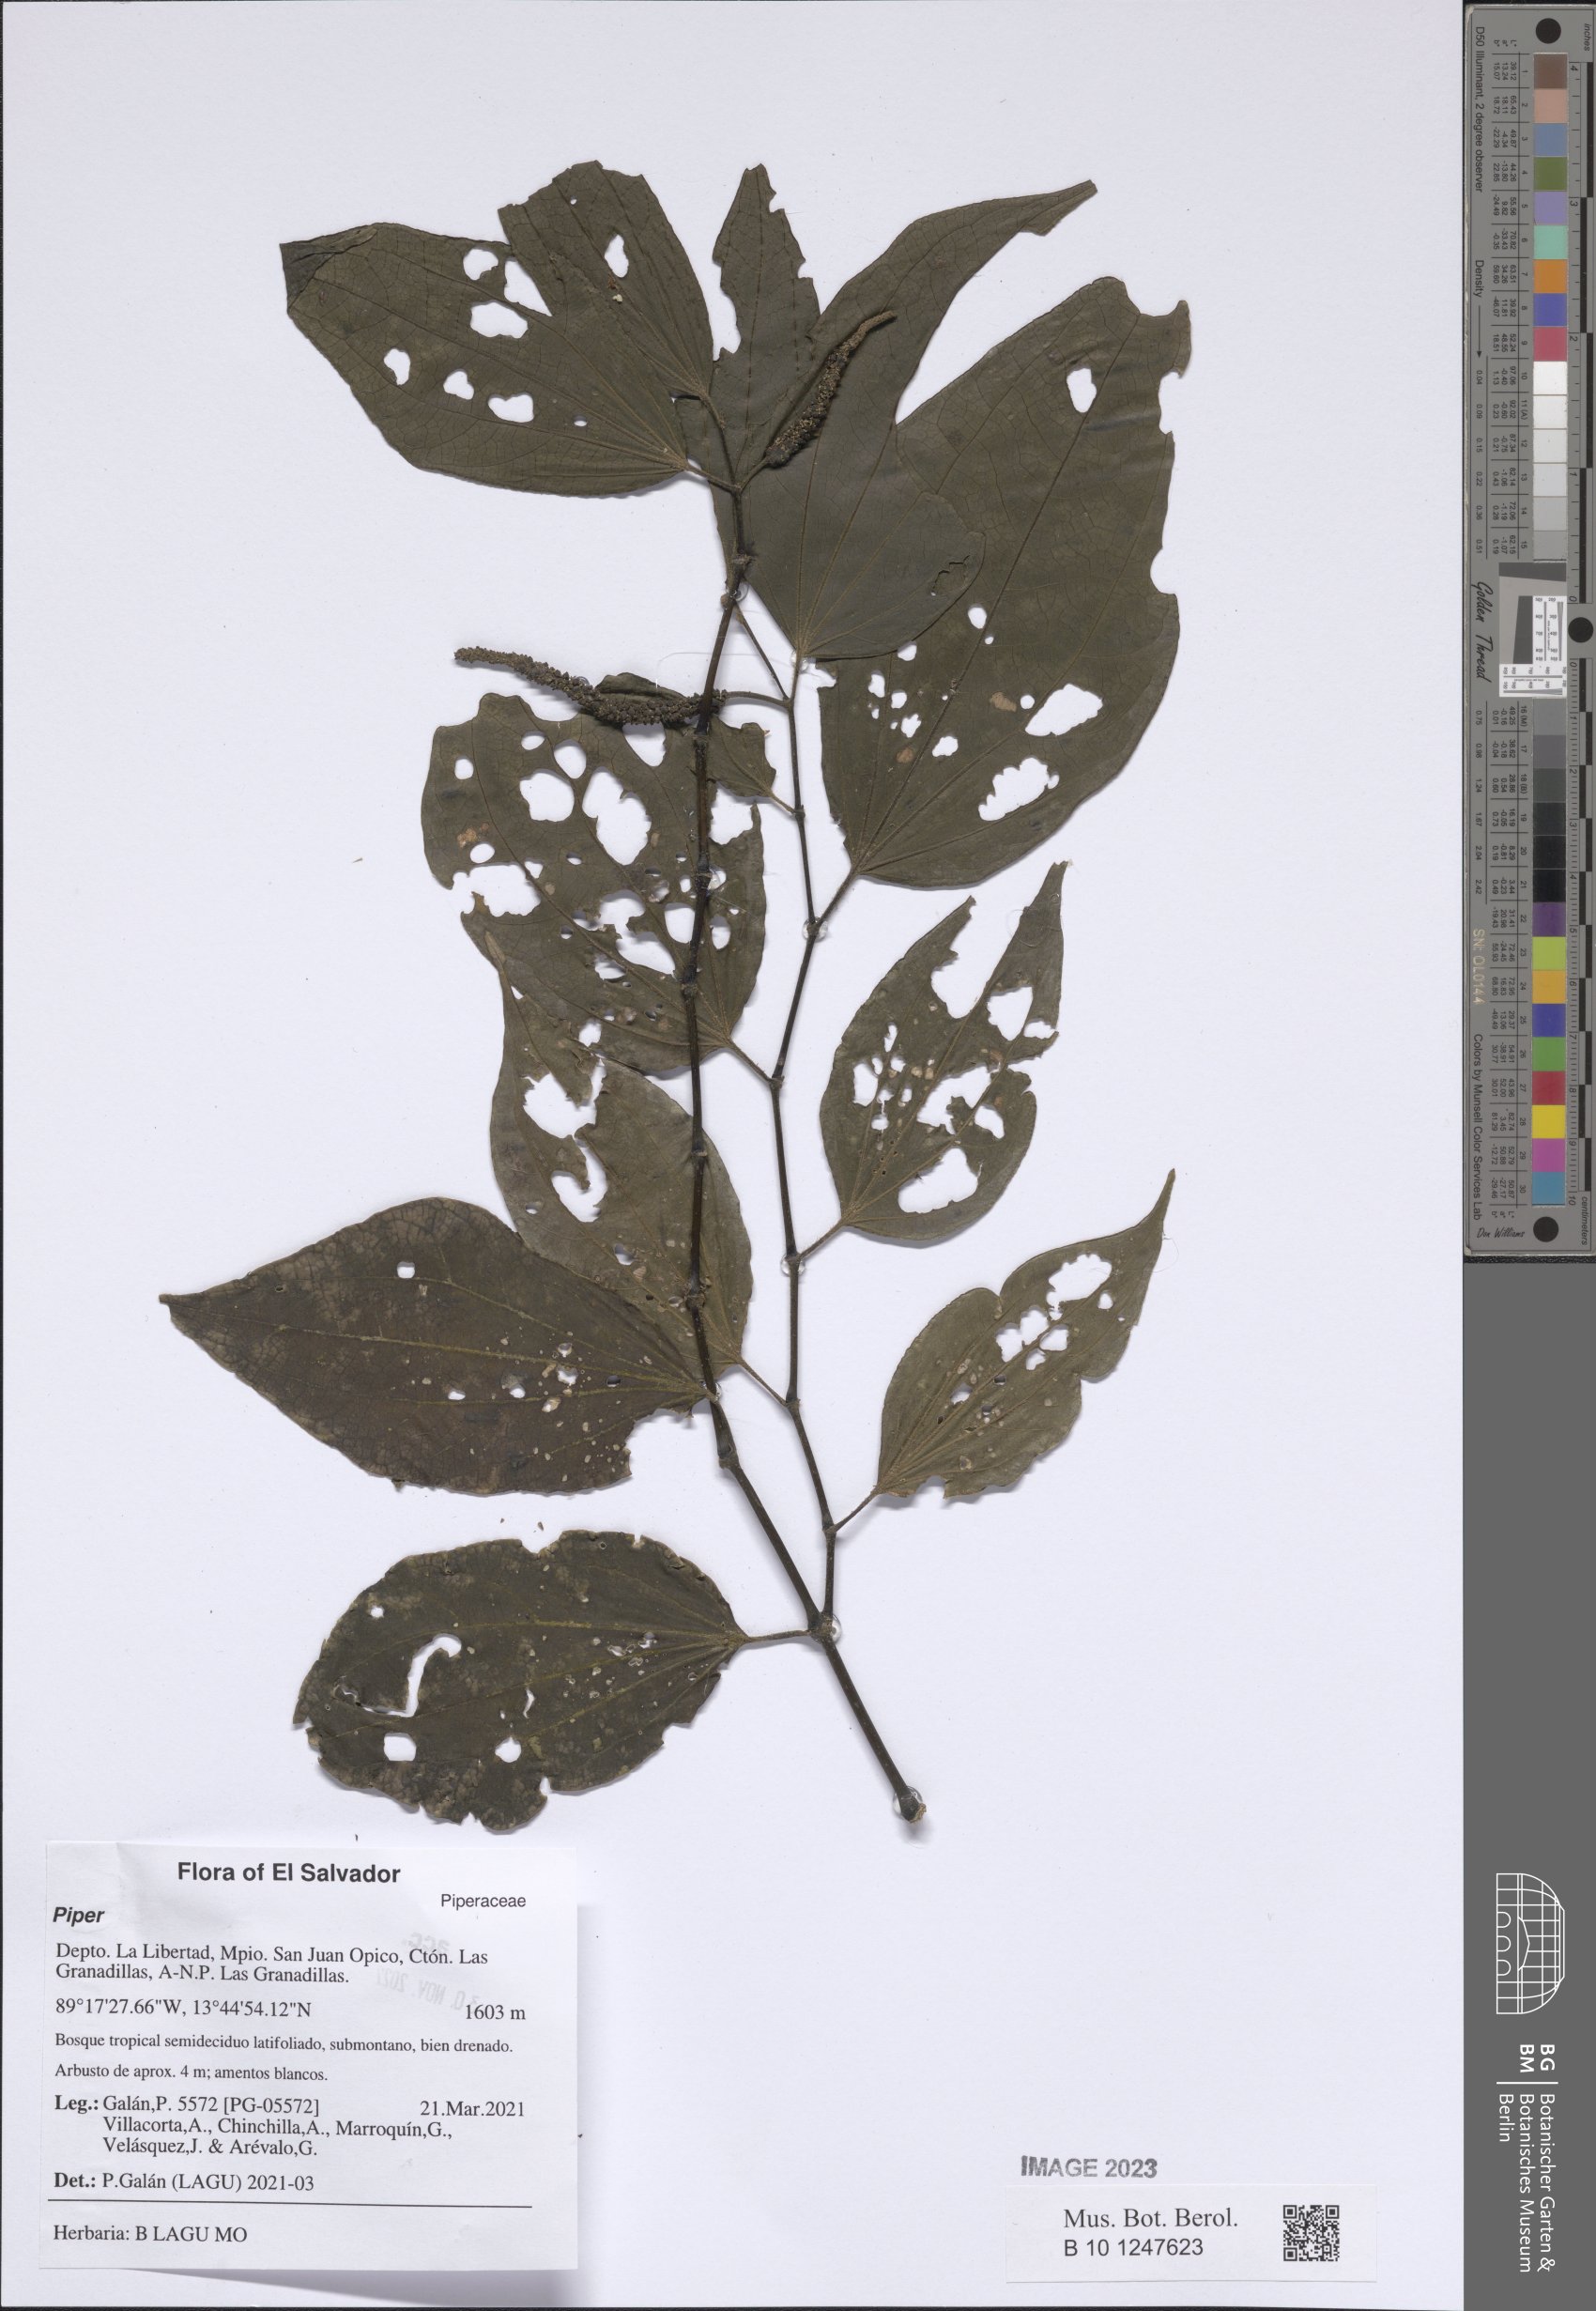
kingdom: Plantae
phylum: Tracheophyta
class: Magnoliopsida
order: Piperales
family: Piperaceae
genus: Piper
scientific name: Piper
